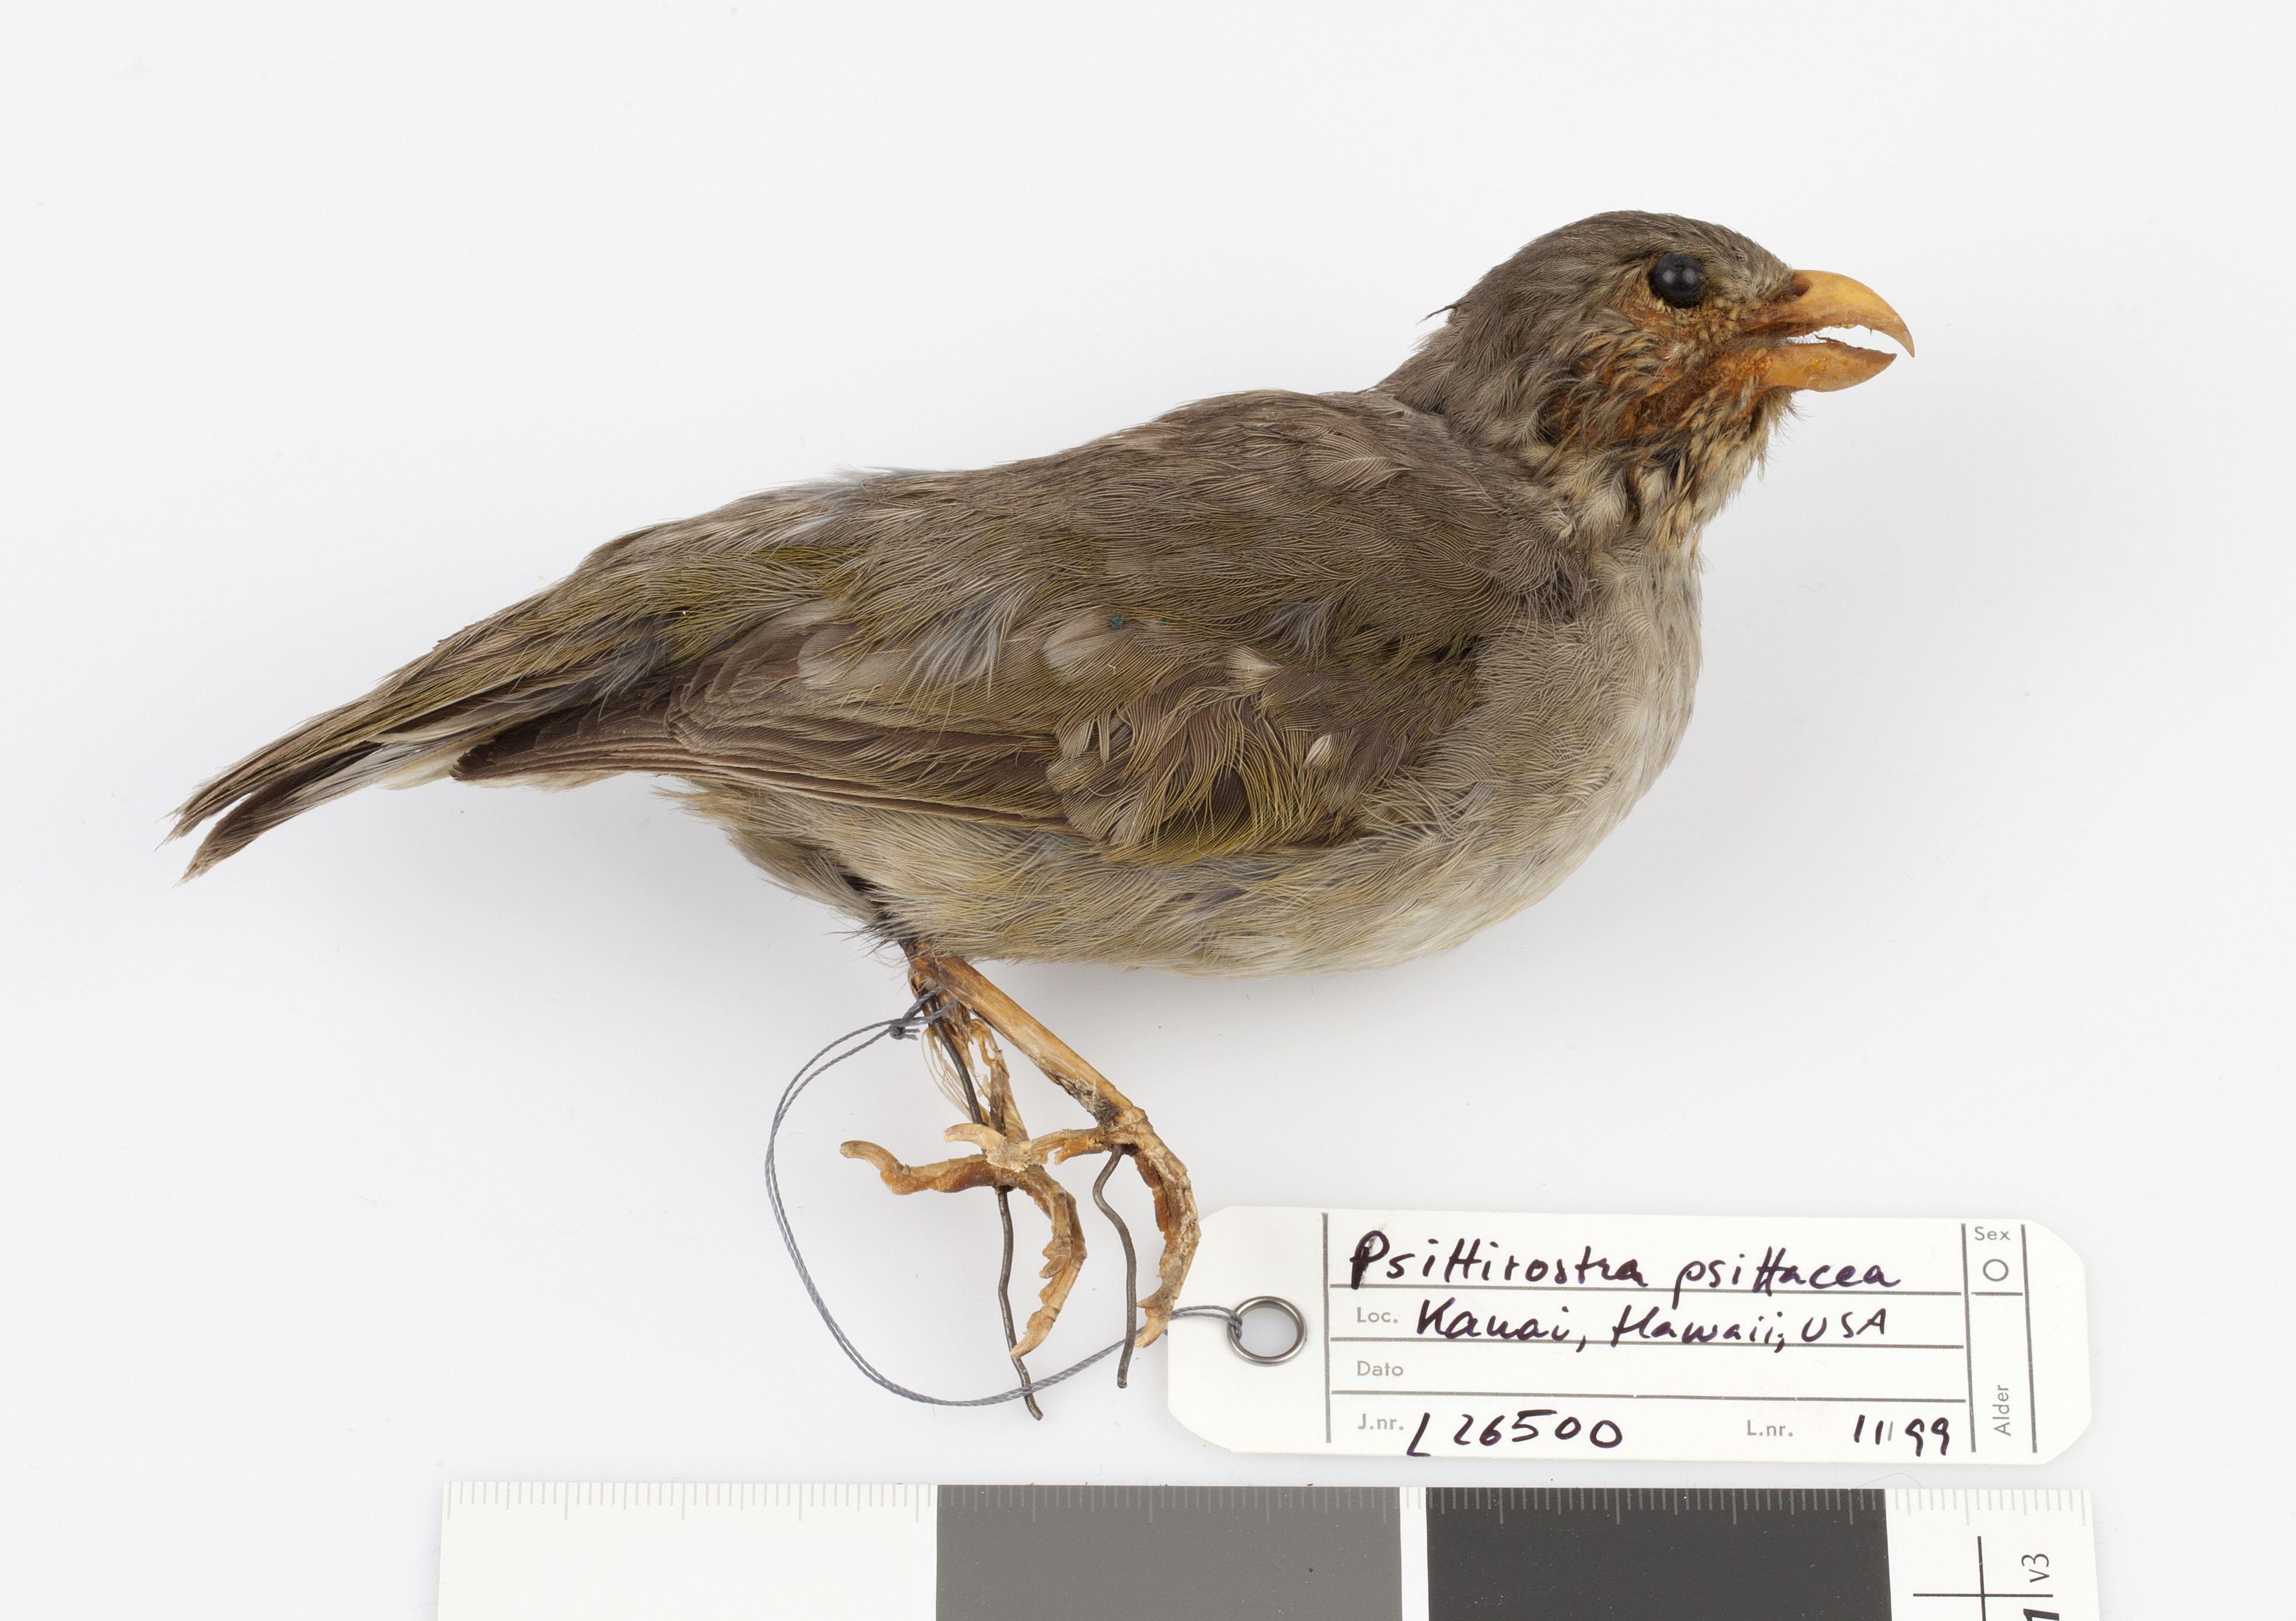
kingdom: Animalia
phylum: Chordata
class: Aves
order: Passeriformes
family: Fringillidae
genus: Psittirostra
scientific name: Psittirostra psittacea
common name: Ou
